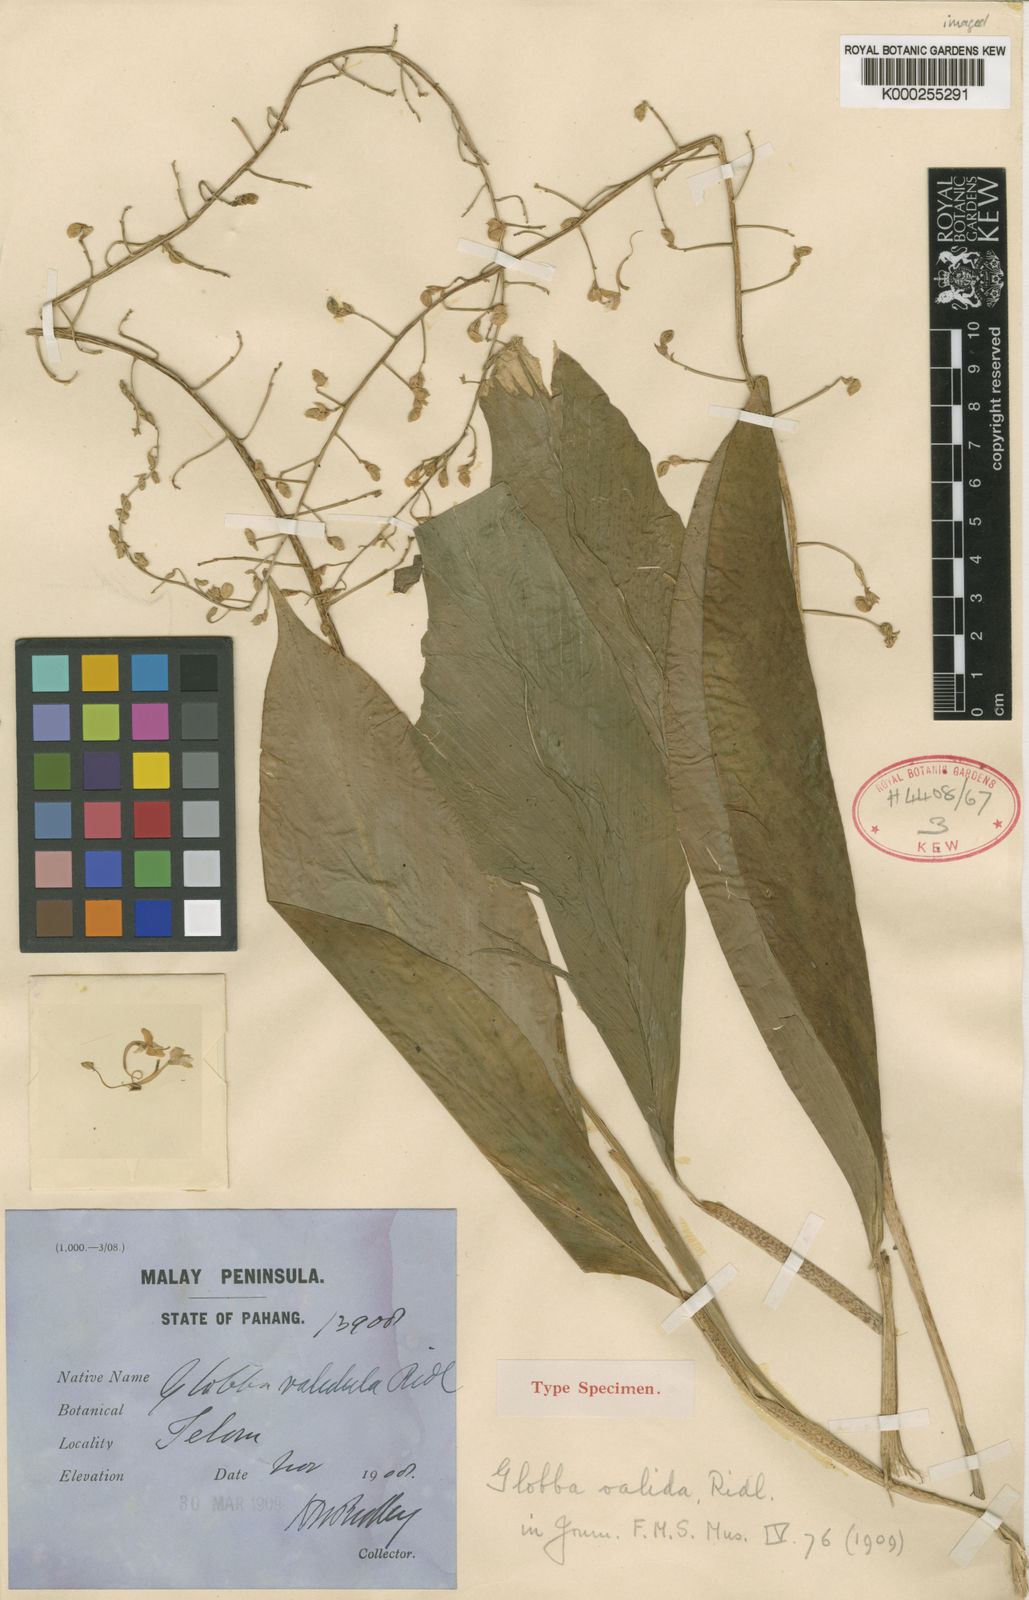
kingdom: Plantae
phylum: Tracheophyta
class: Liliopsida
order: Zingiberales
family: Zingiberaceae
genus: Globba
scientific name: Globba pendula
